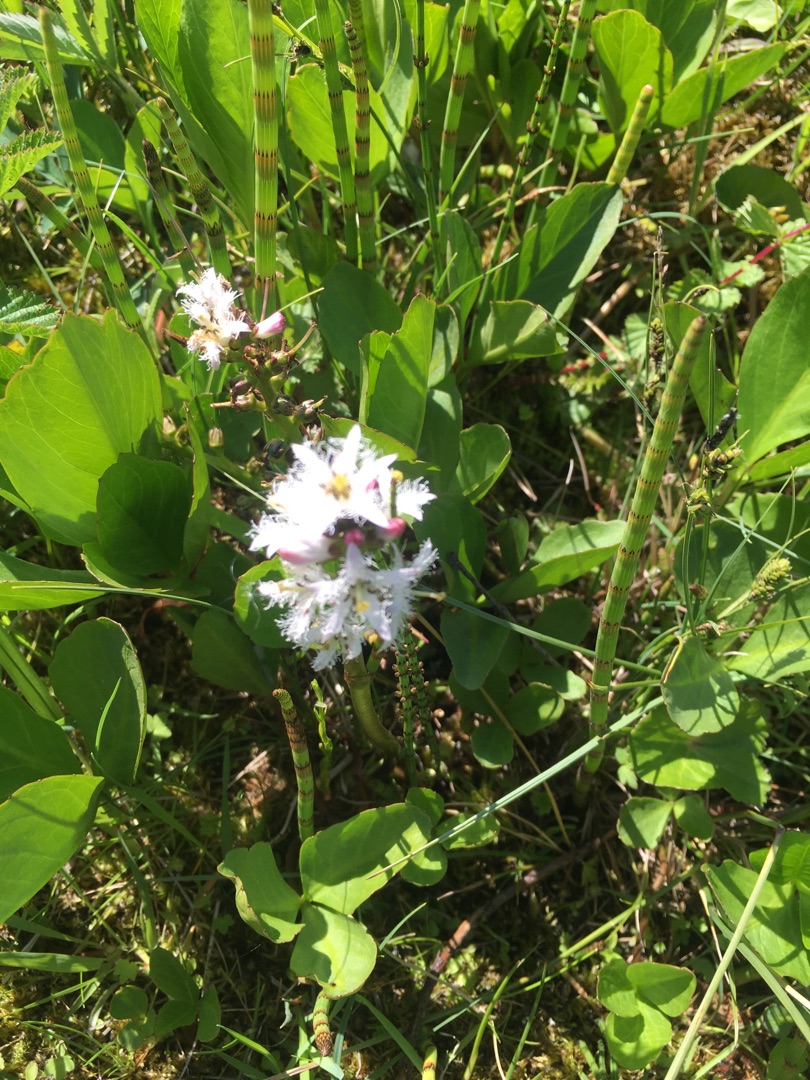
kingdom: Plantae
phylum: Tracheophyta
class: Magnoliopsida
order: Asterales
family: Menyanthaceae
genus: Menyanthes
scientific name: Menyanthes trifoliata
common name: Bukkeblad
